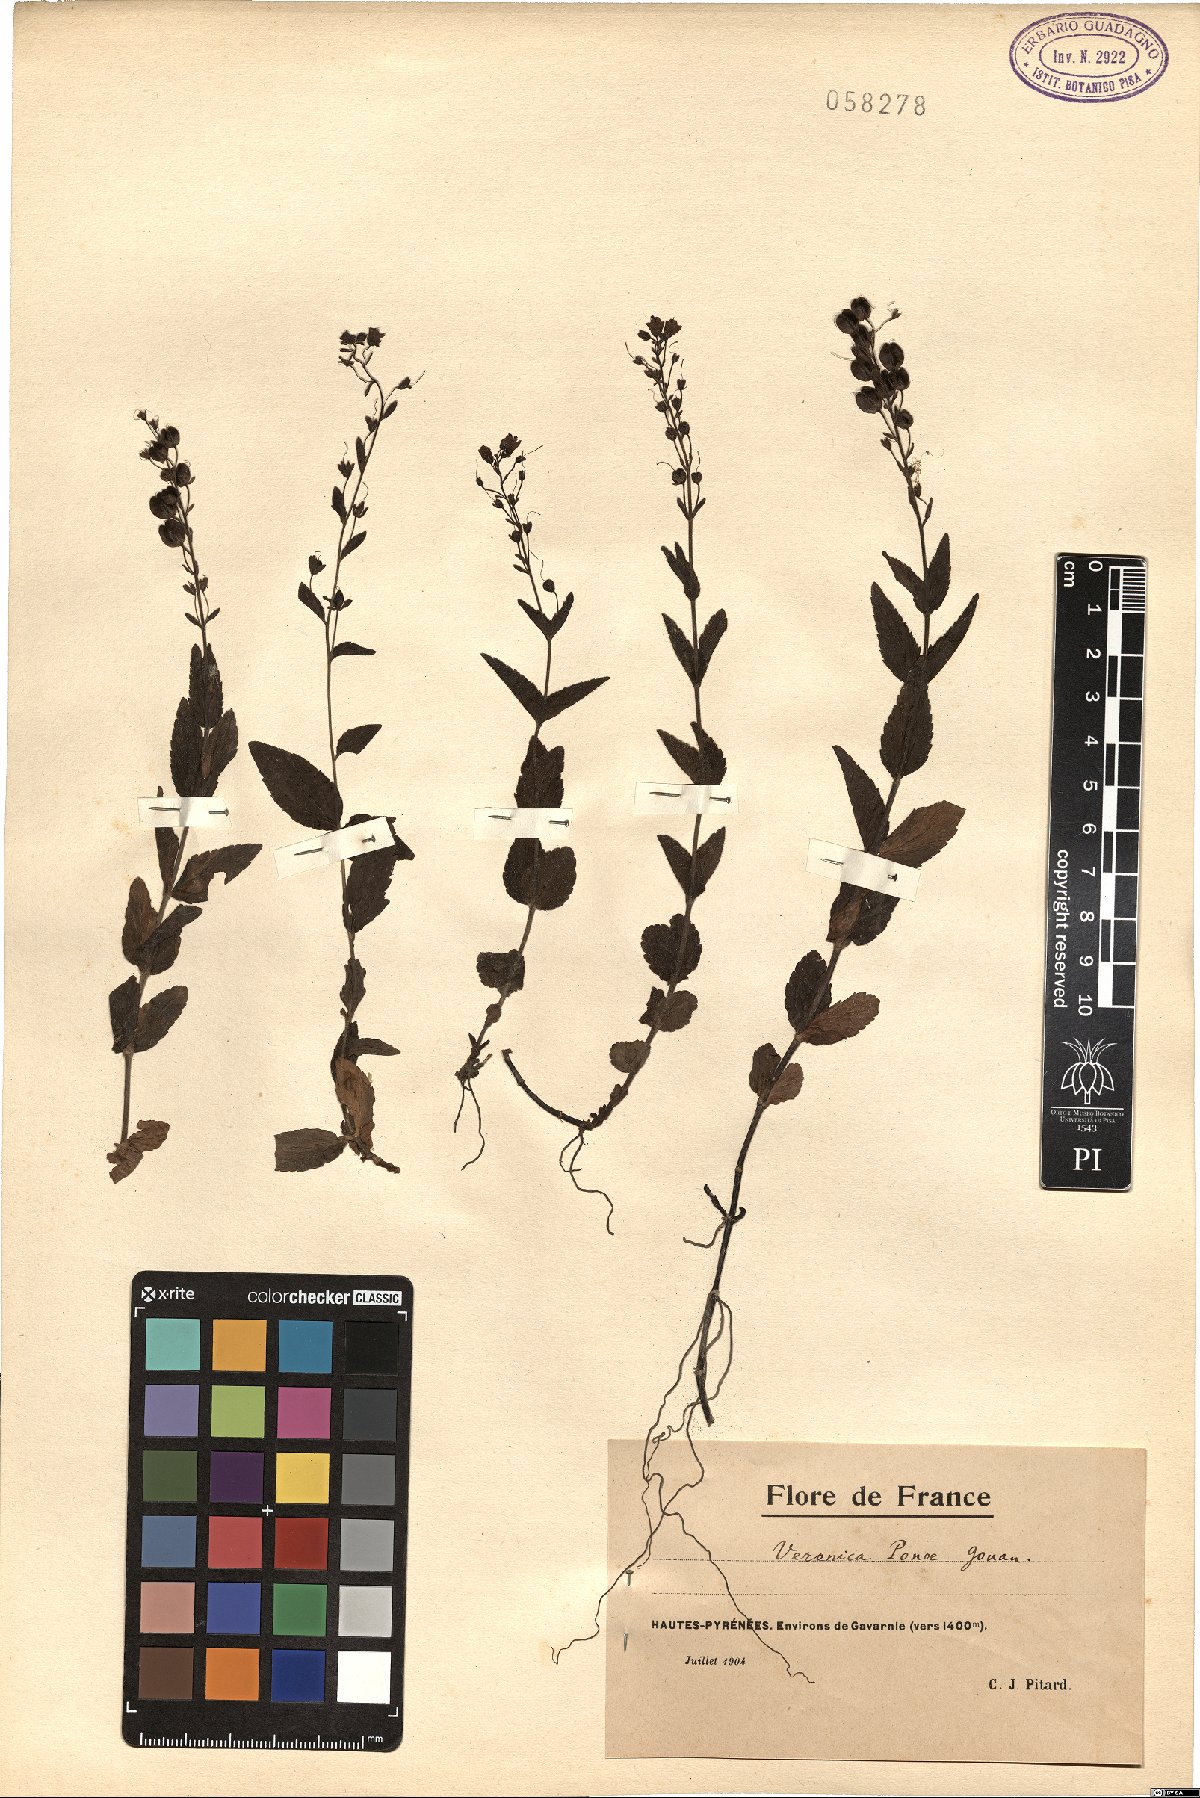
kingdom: Plantae
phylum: Tracheophyta
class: Magnoliopsida
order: Lamiales
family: Plantaginaceae
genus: Veronica
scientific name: Veronica ponae
